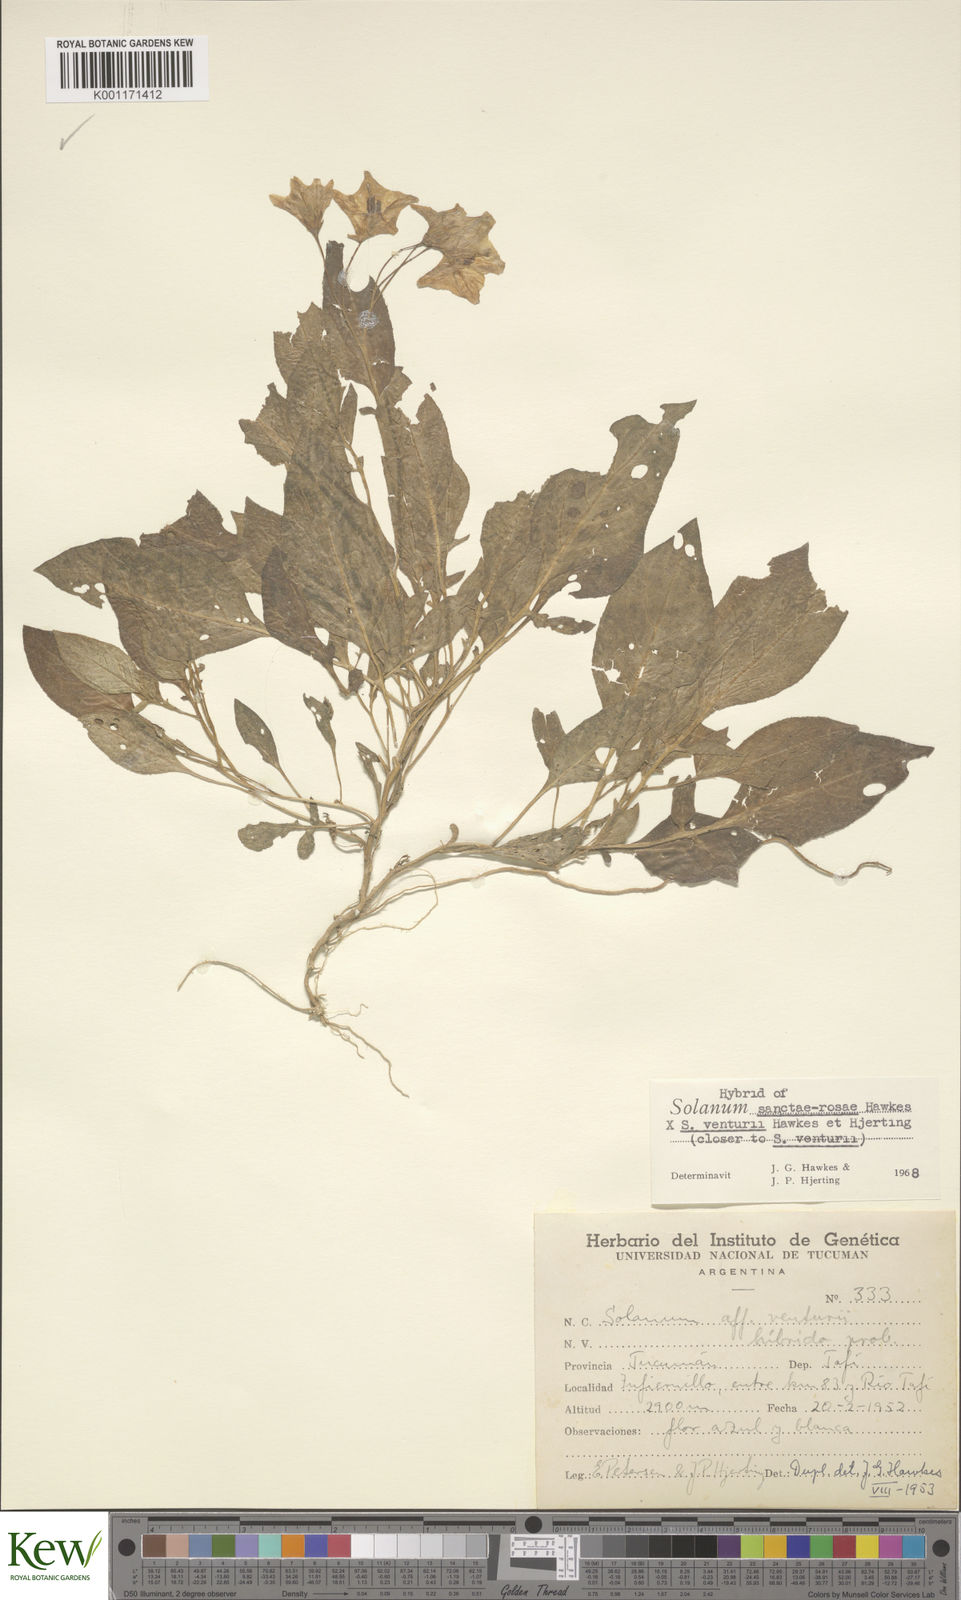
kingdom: Plantae
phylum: Tracheophyta
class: Magnoliopsida
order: Solanales
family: Solanaceae
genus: Solanum
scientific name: Solanum boliviense
